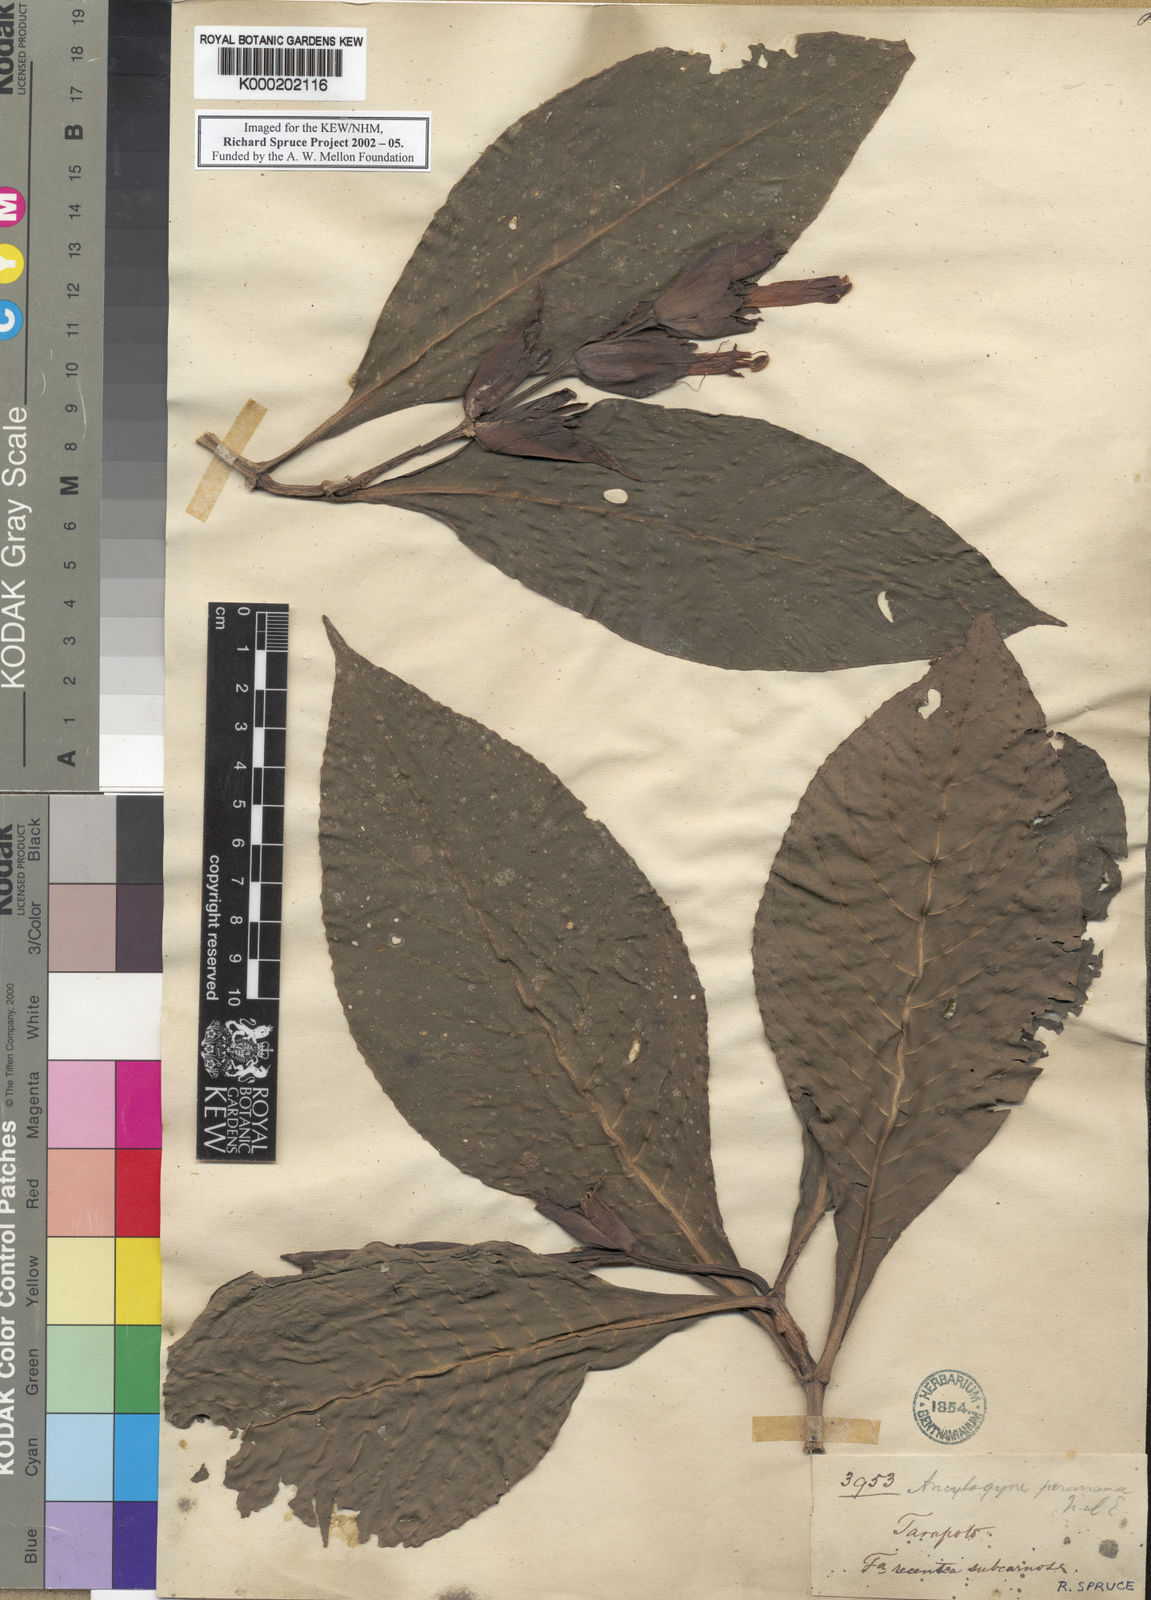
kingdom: Plantae
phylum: Tracheophyta
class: Magnoliopsida
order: Lamiales
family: Acanthaceae
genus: Sanchezia
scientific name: Sanchezia oblonga
